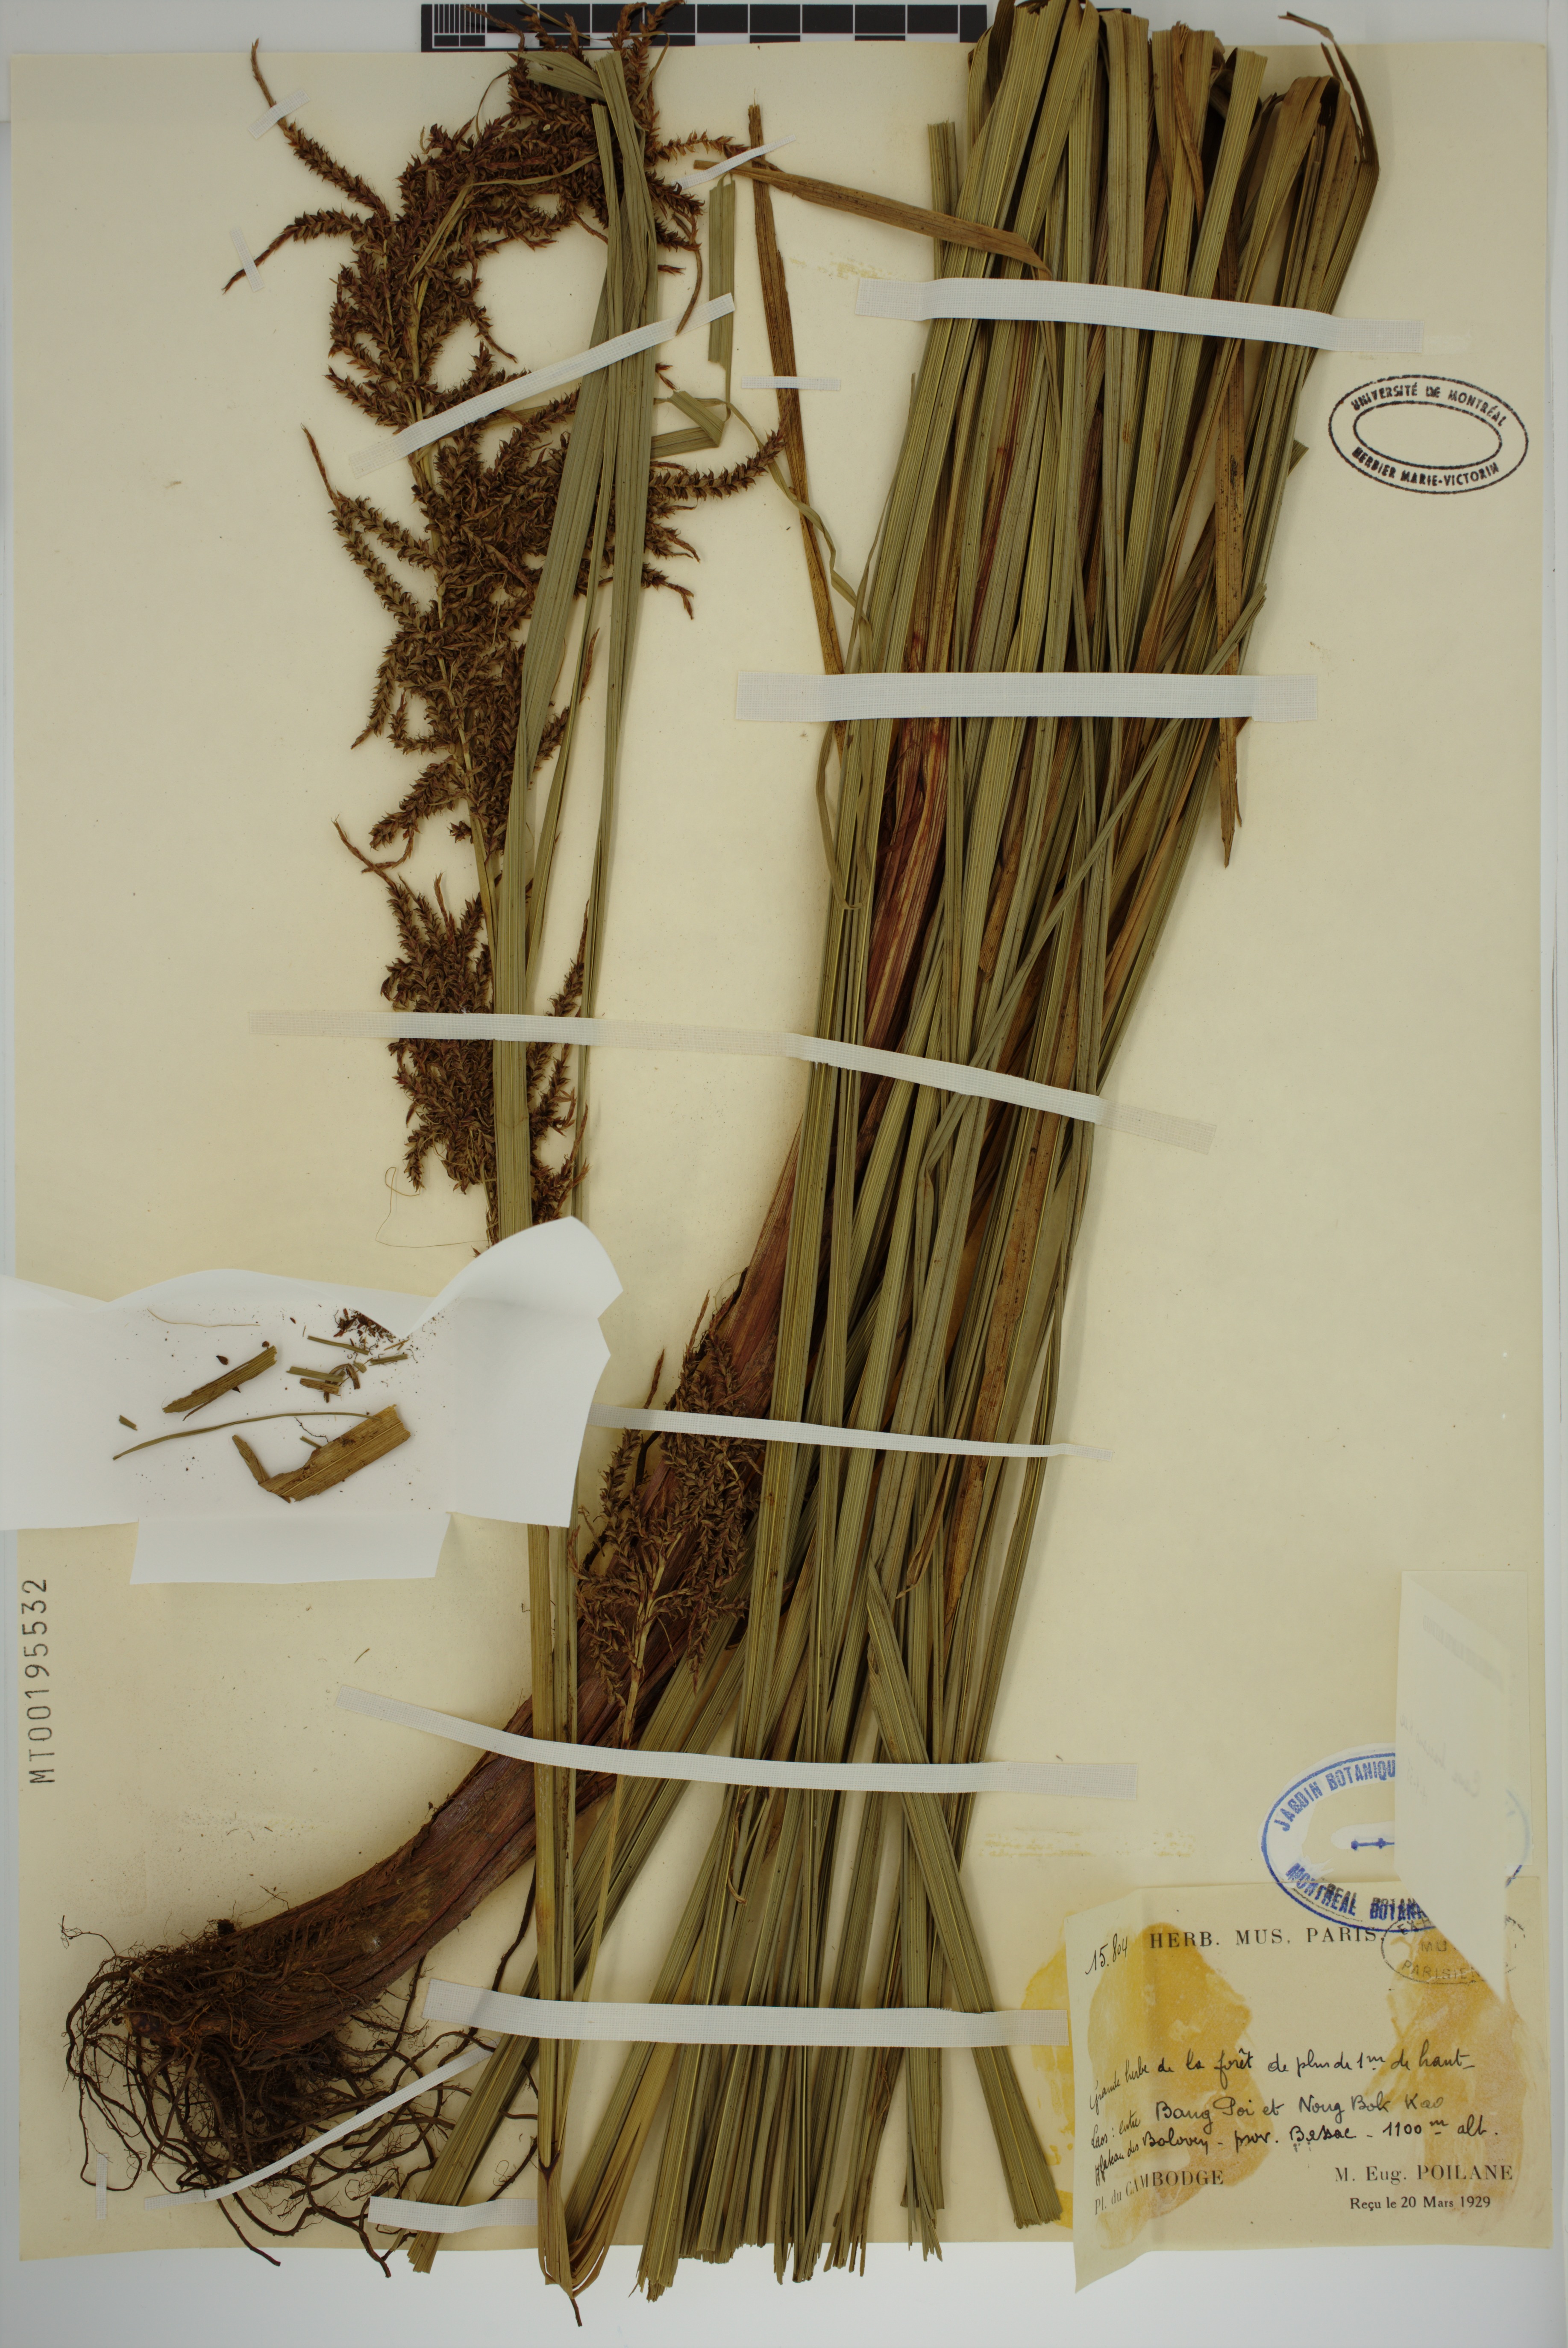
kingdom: Plantae
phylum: Tracheophyta
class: Liliopsida
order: Poales
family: Cyperaceae
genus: Carex
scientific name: Carex baccans
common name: Crimson seeded sedge
